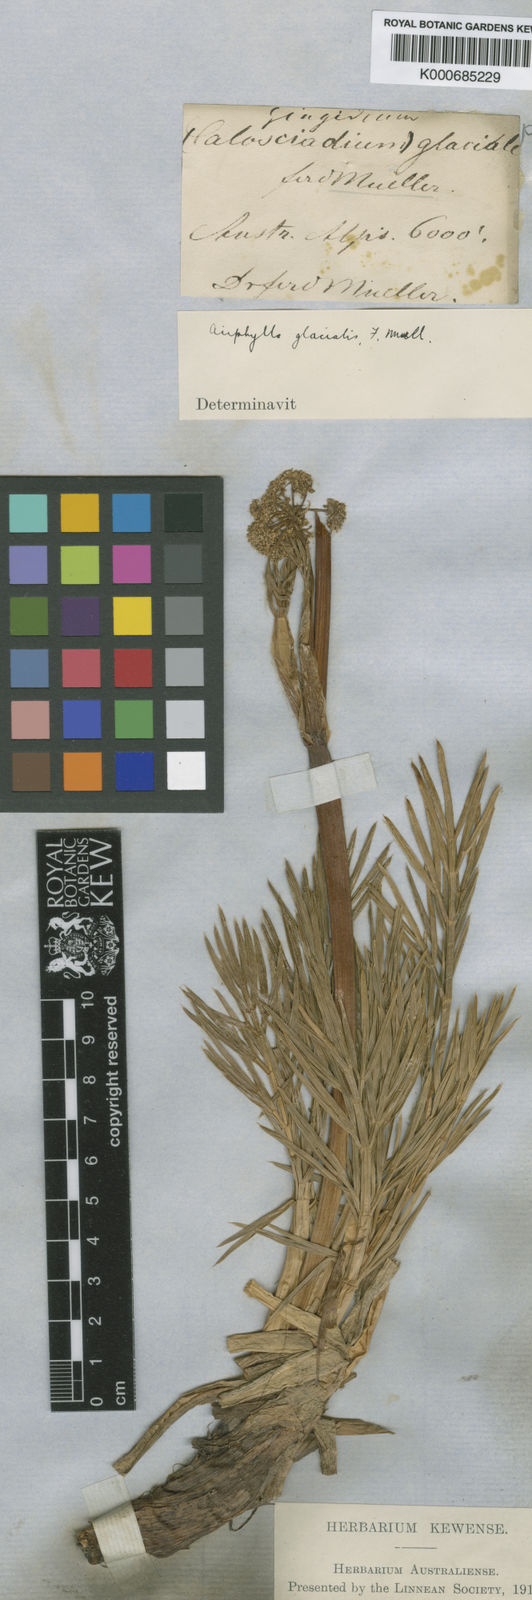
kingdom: Plantae
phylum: Tracheophyta
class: Magnoliopsida
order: Apiales
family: Apiaceae
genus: Aciphylla
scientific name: Aciphylla glacialis
